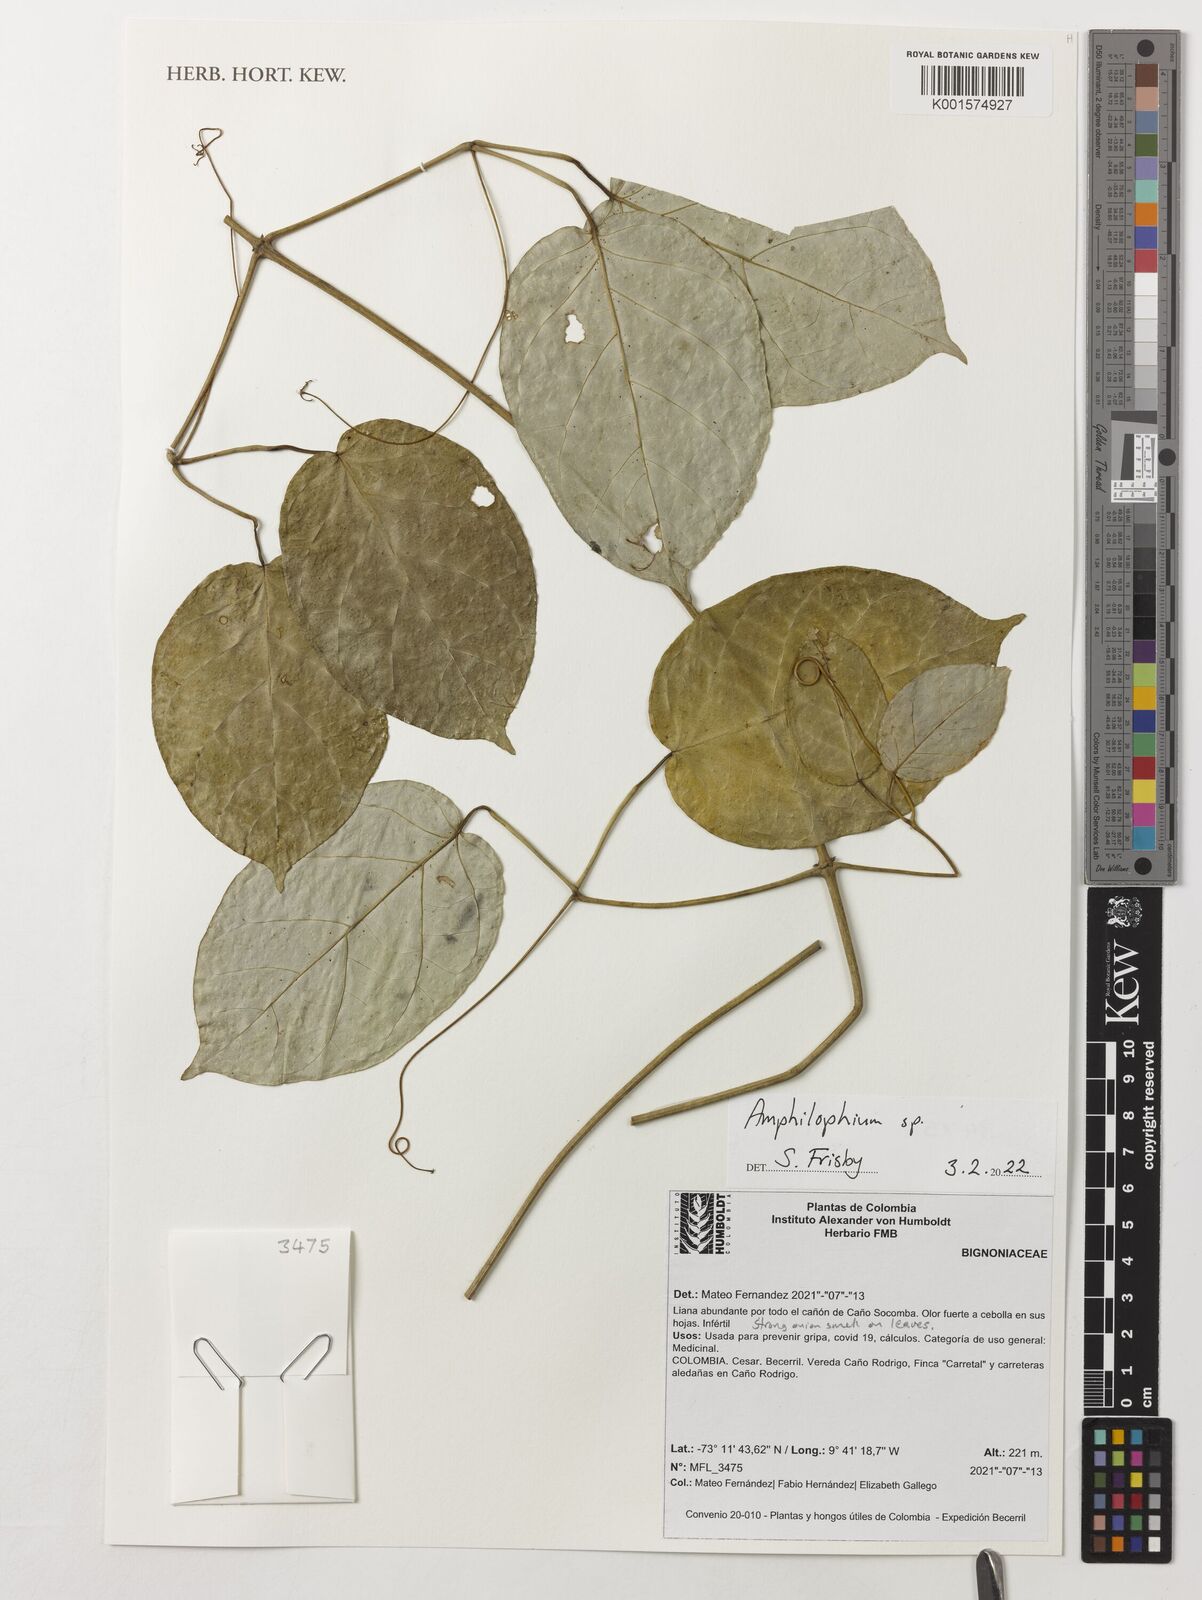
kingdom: Plantae
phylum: Tracheophyta
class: Magnoliopsida
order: Lamiales
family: Bignoniaceae
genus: Amphilophium
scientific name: Amphilophium
